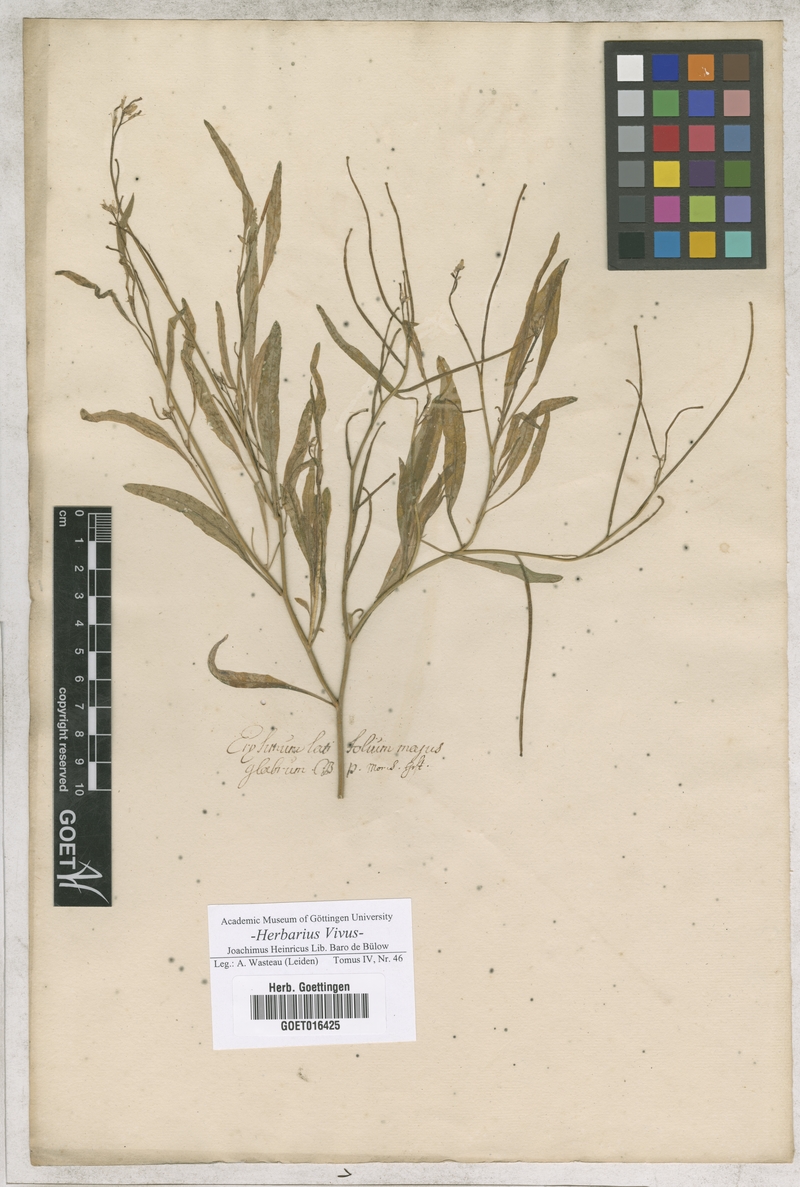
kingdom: Plantae
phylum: Tracheophyta
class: Magnoliopsida
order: Brassicales
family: Brassicaceae
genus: Sisymbrium
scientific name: Sisymbrium irio
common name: London rocket
